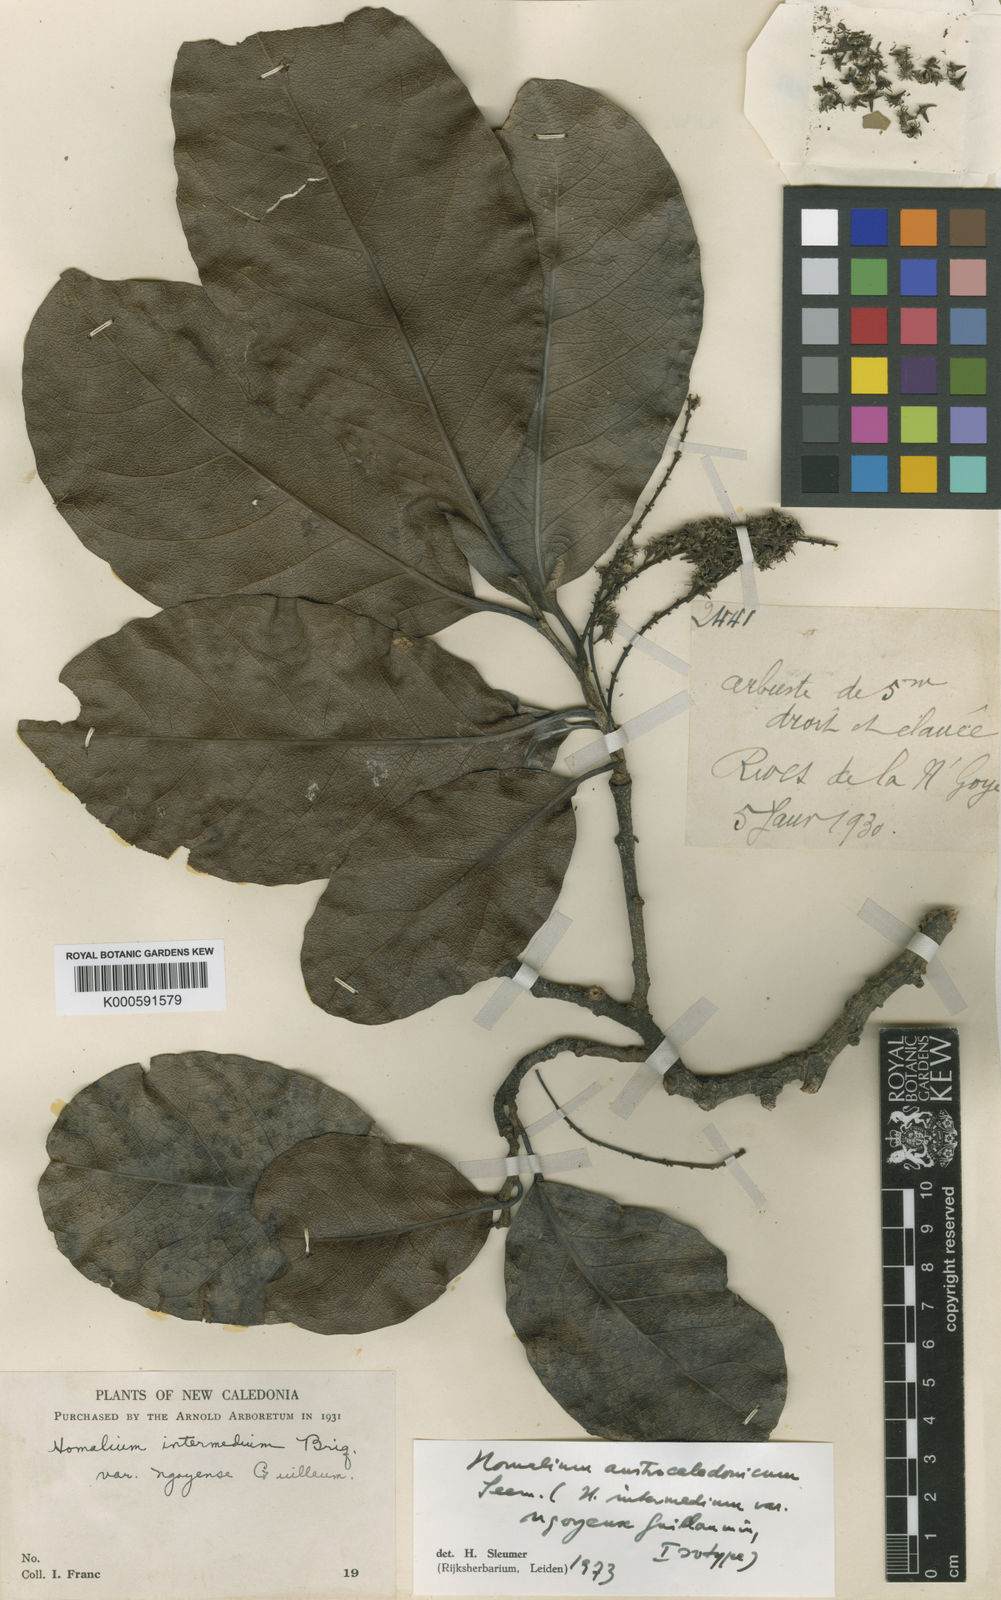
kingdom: Plantae
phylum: Tracheophyta
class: Magnoliopsida
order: Malpighiales
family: Salicaceae
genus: Homalium
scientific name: Homalium austrocaledonicum
